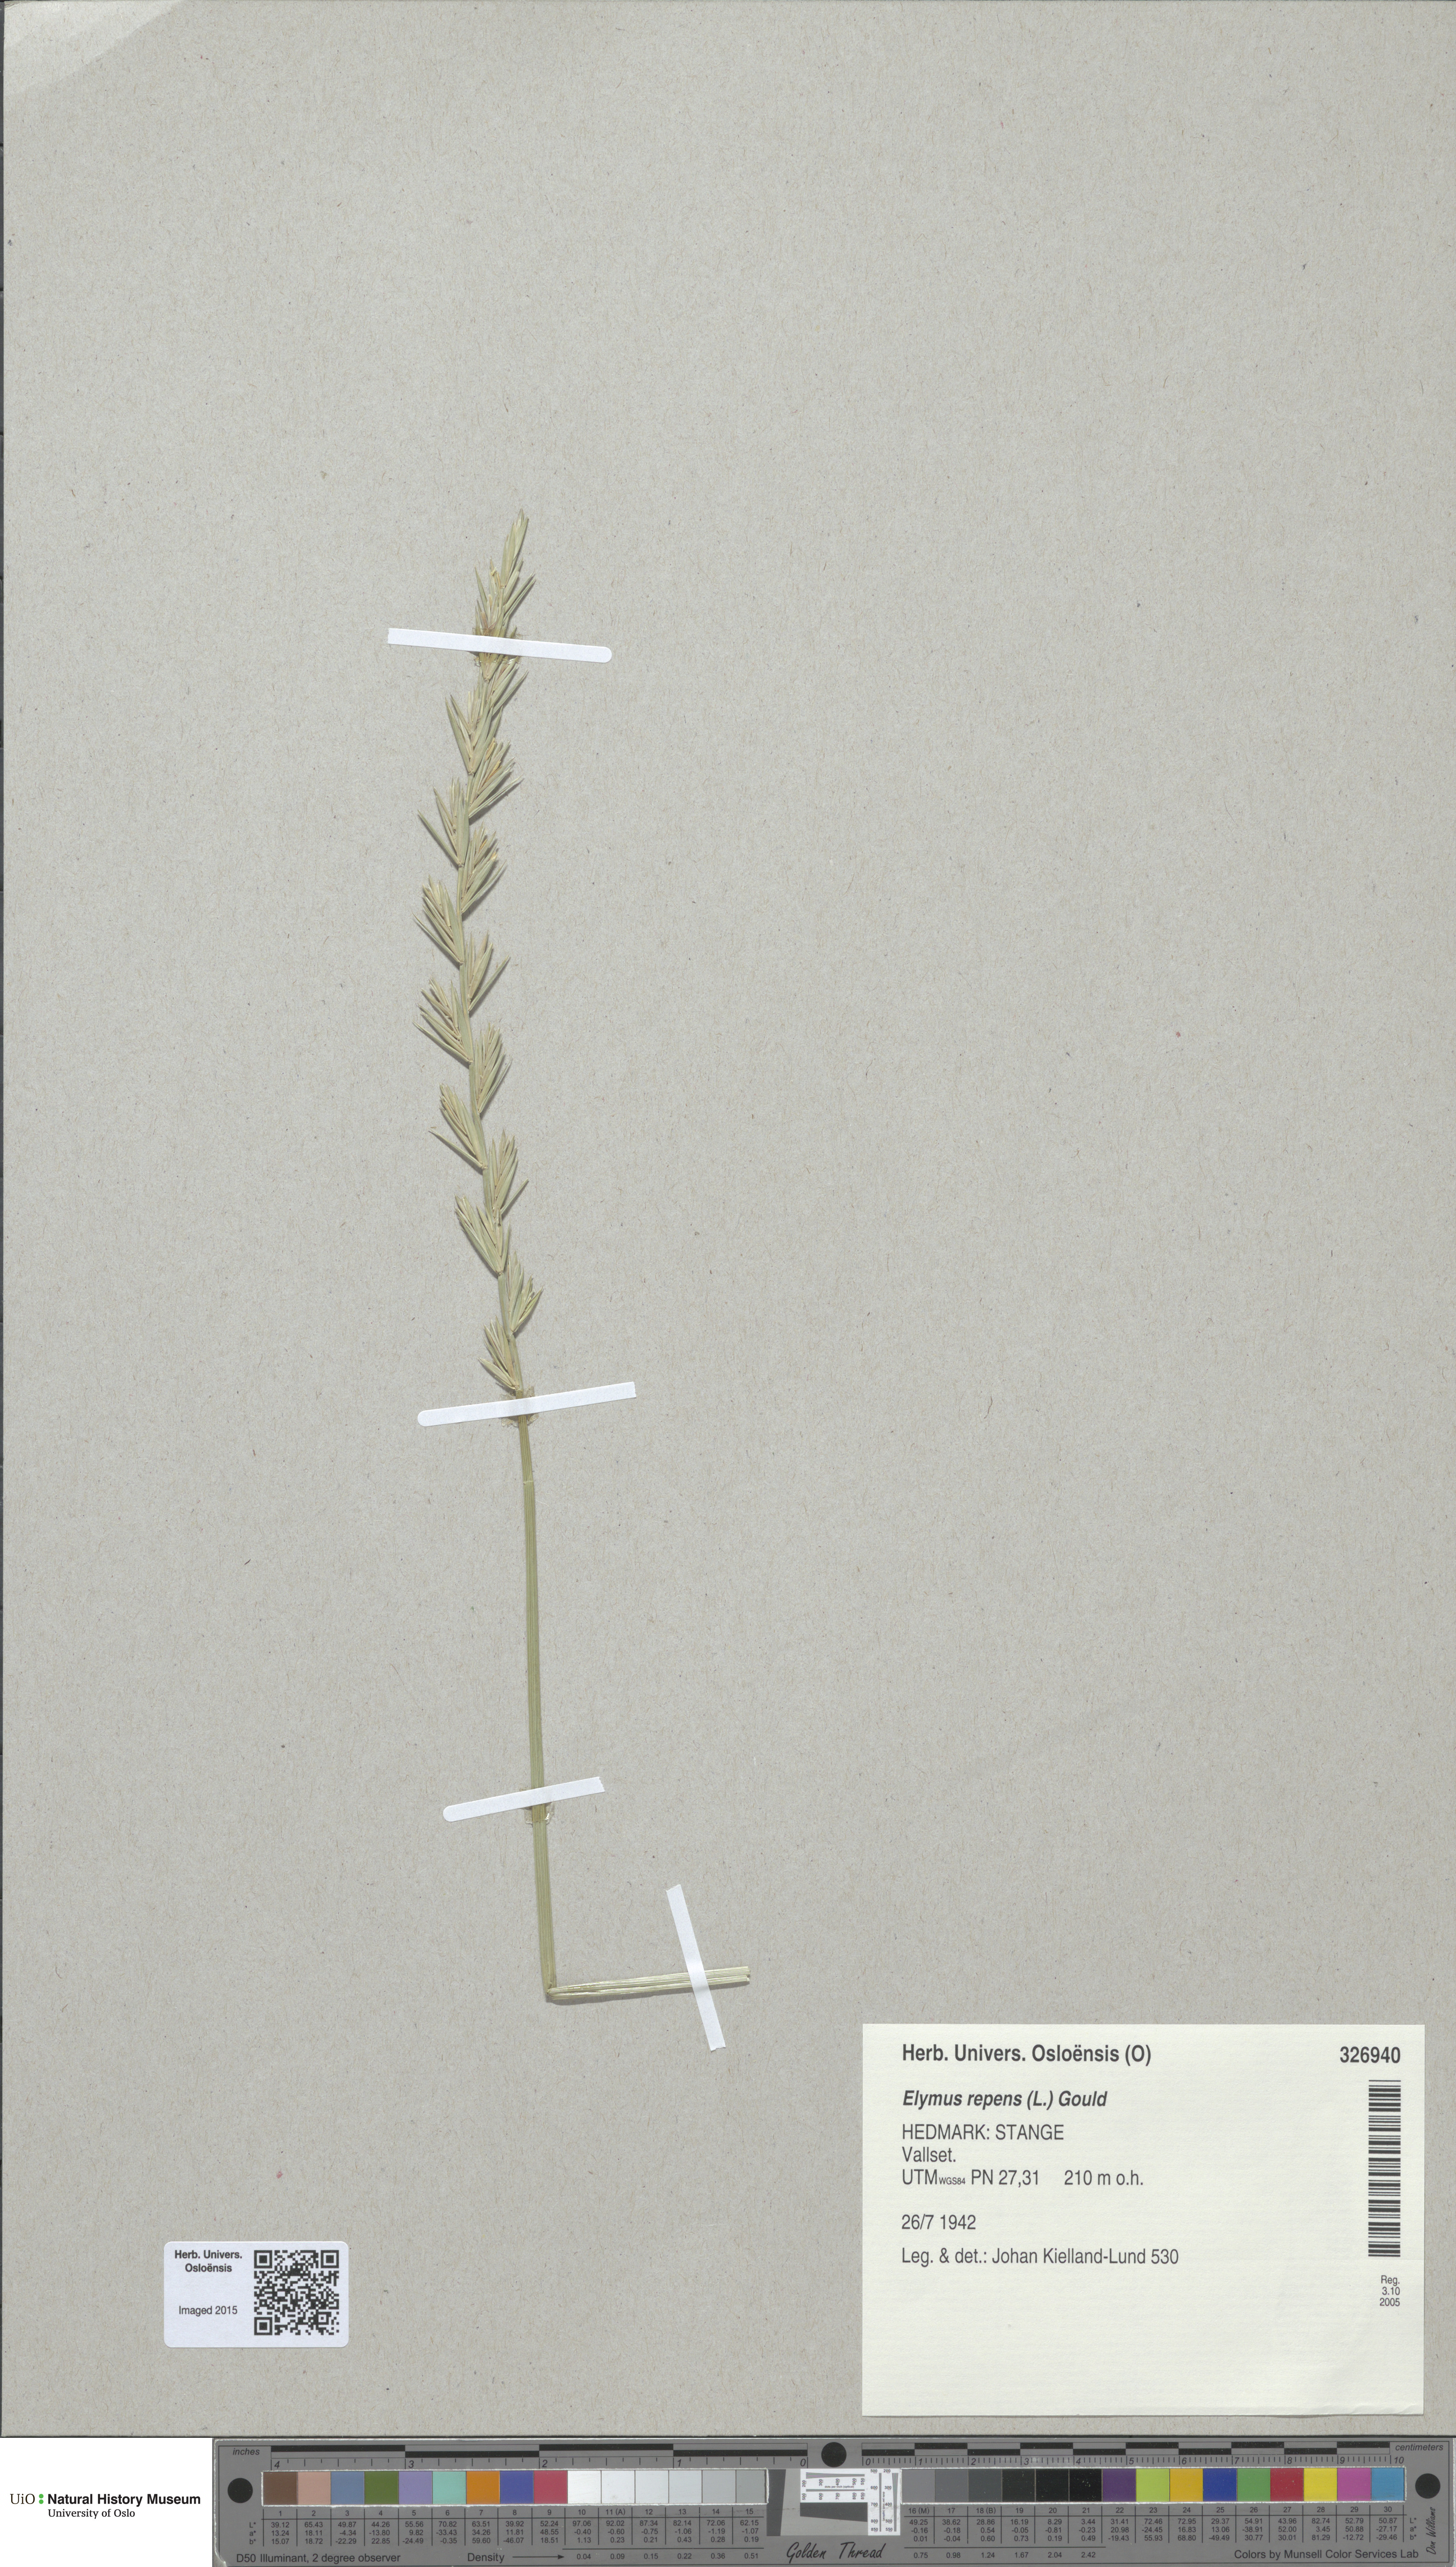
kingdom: Plantae
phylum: Tracheophyta
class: Liliopsida
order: Poales
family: Poaceae
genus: Elymus
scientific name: Elymus repens
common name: Quackgrass
